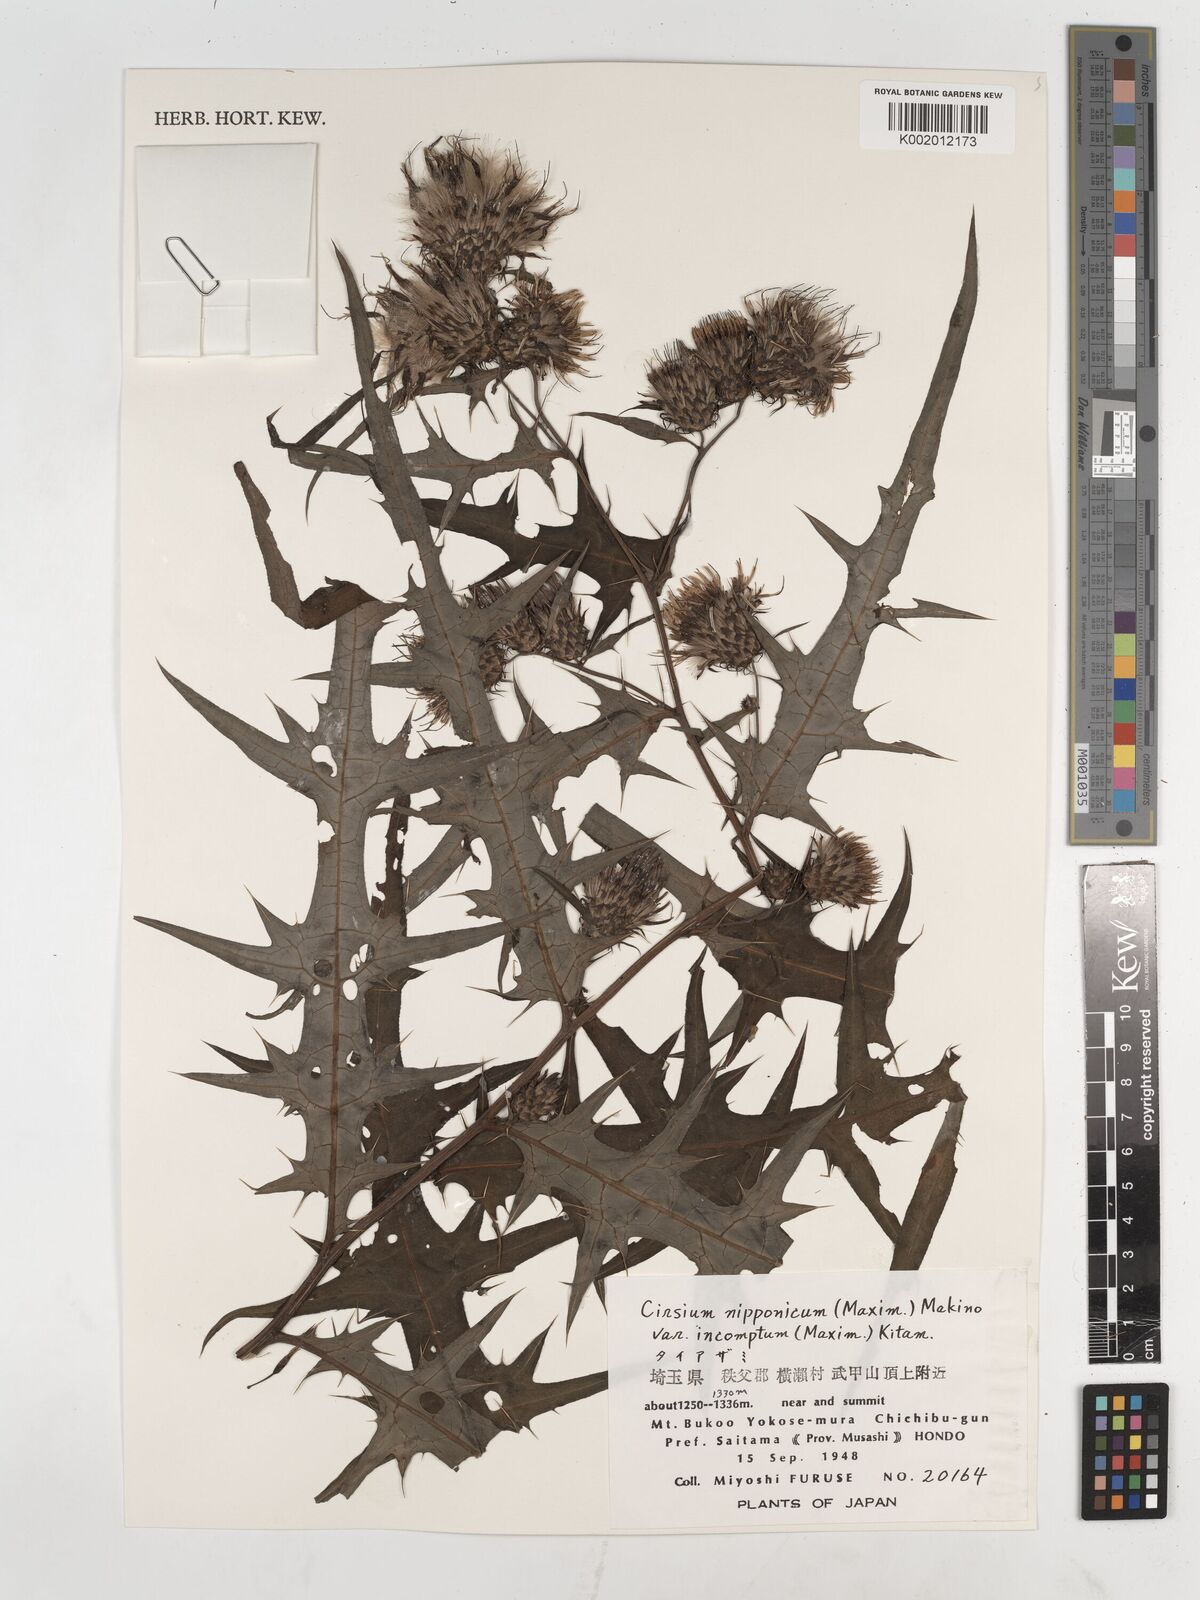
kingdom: Plantae
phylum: Tracheophyta
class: Magnoliopsida
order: Asterales
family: Asteraceae
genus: Cirsium
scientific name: Cirsium nipponicum
